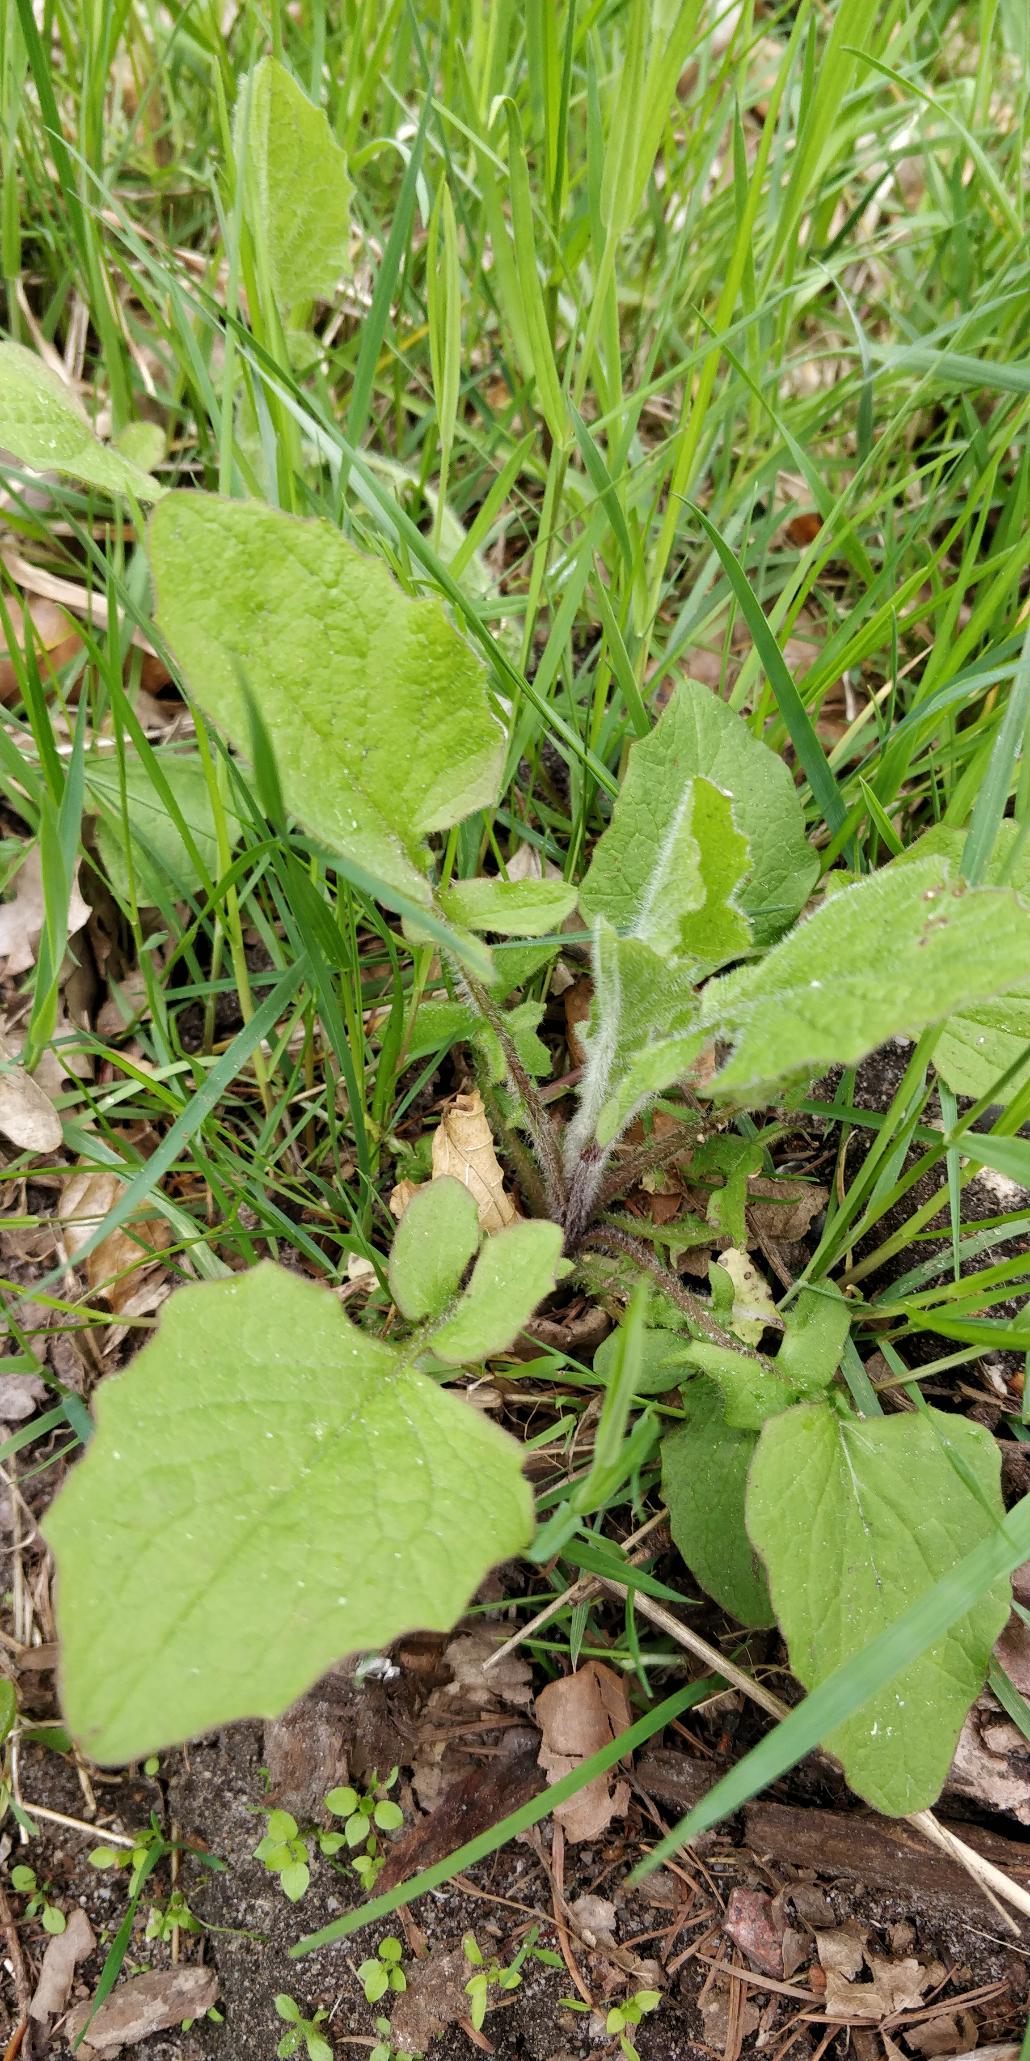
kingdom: Plantae
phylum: Tracheophyta
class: Magnoliopsida
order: Asterales
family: Asteraceae
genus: Lapsana
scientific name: Lapsana communis
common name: Haremad
